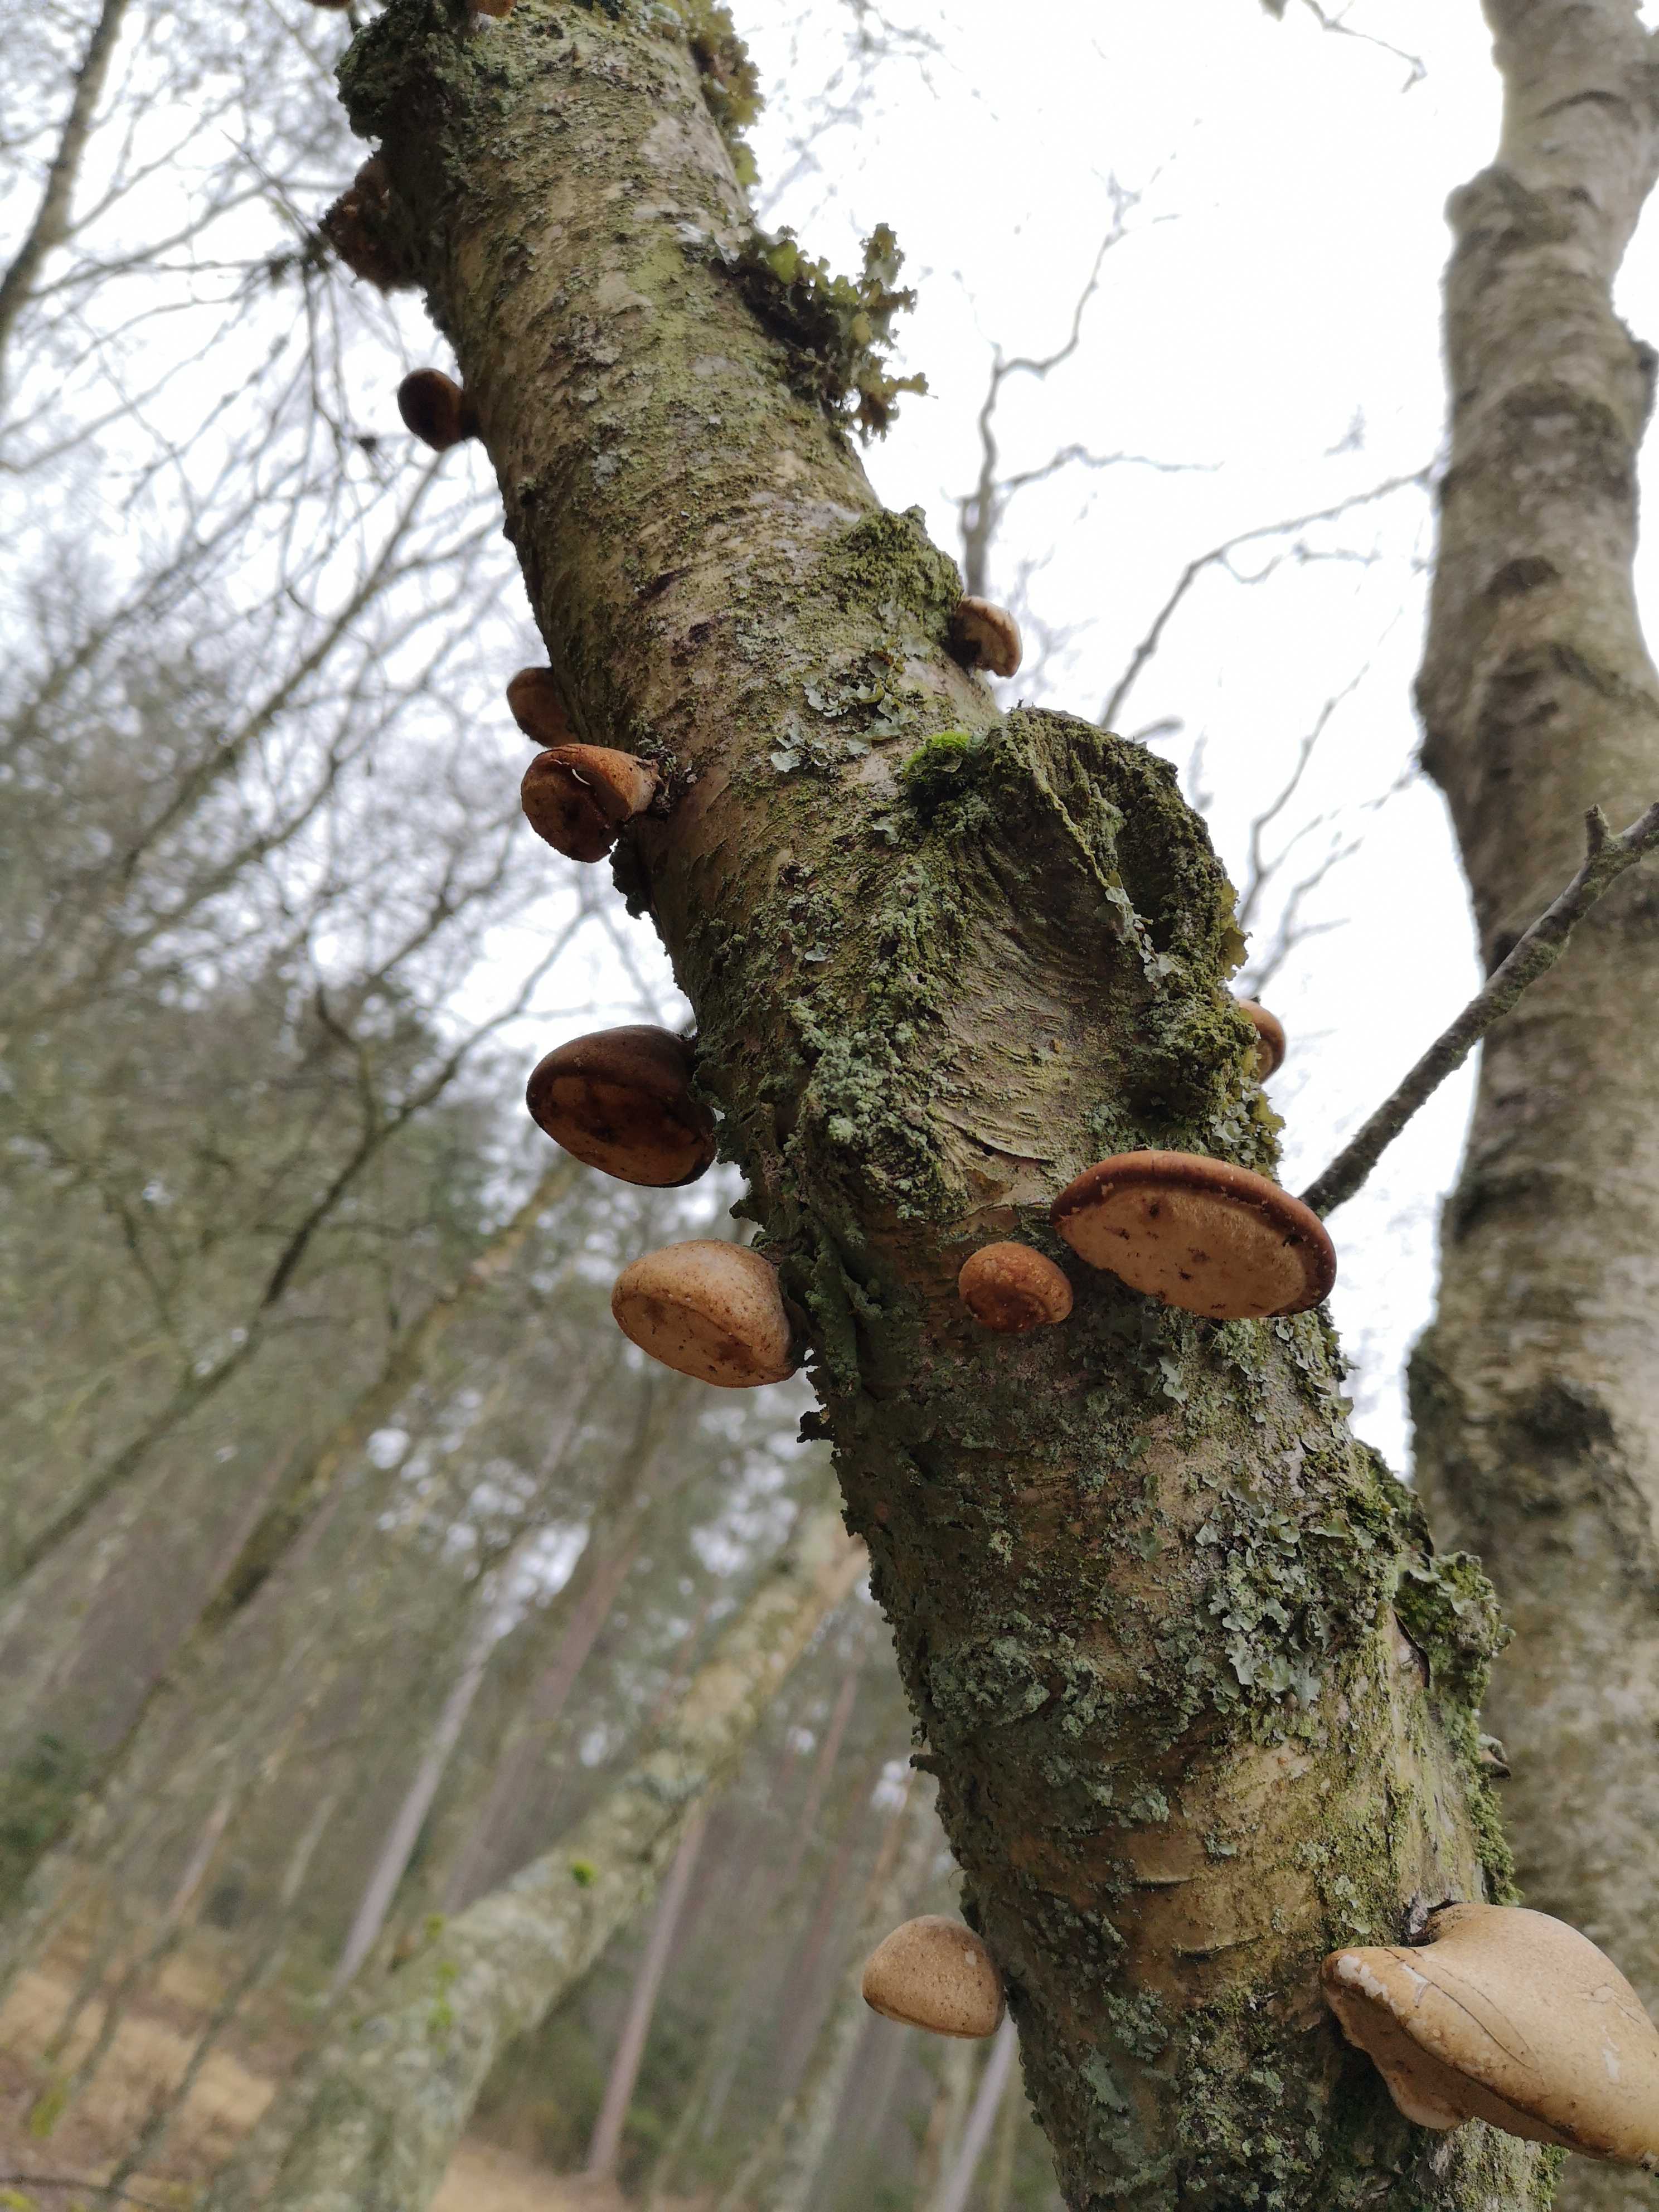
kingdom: Fungi
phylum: Basidiomycota
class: Agaricomycetes
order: Polyporales
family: Fomitopsidaceae
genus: Fomitopsis
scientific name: Fomitopsis betulina
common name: birkeporesvamp
